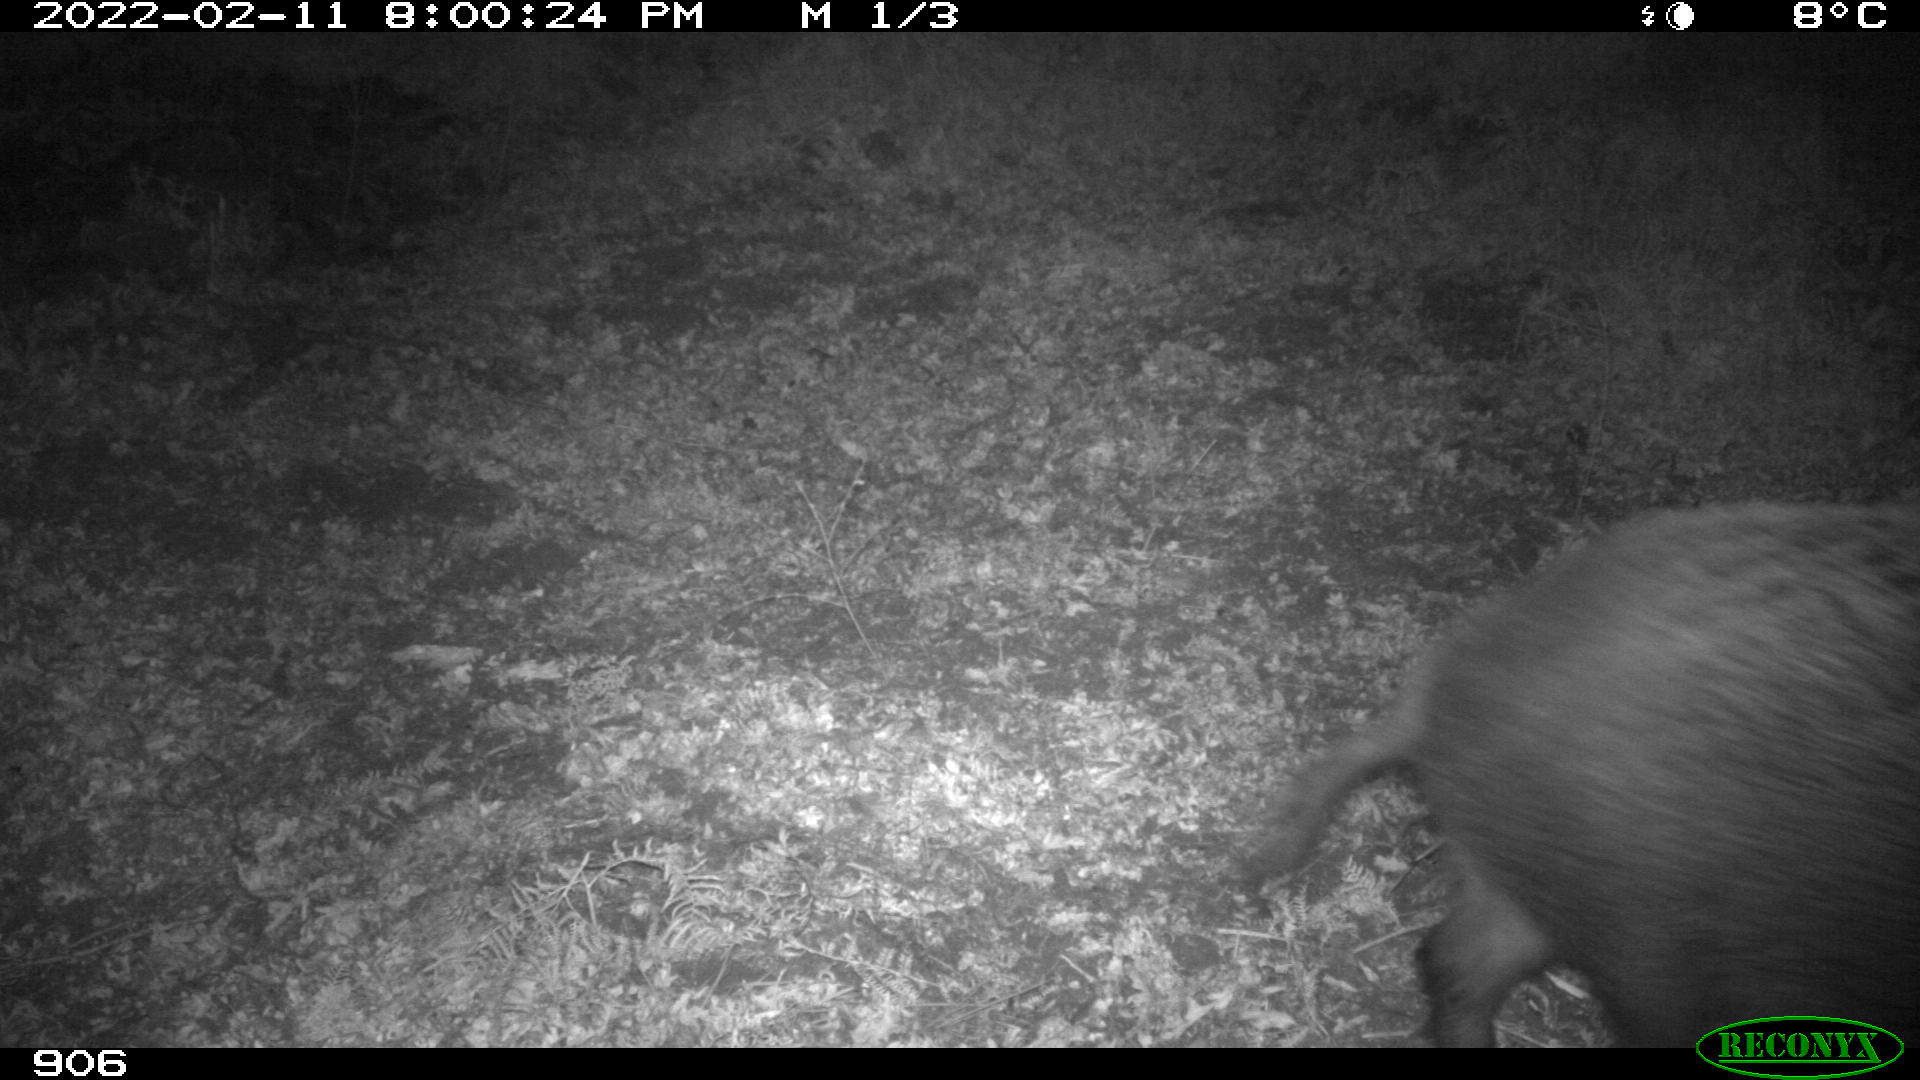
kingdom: Animalia
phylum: Chordata
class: Mammalia
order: Artiodactyla
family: Suidae
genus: Sus
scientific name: Sus scrofa
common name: Wild boar
